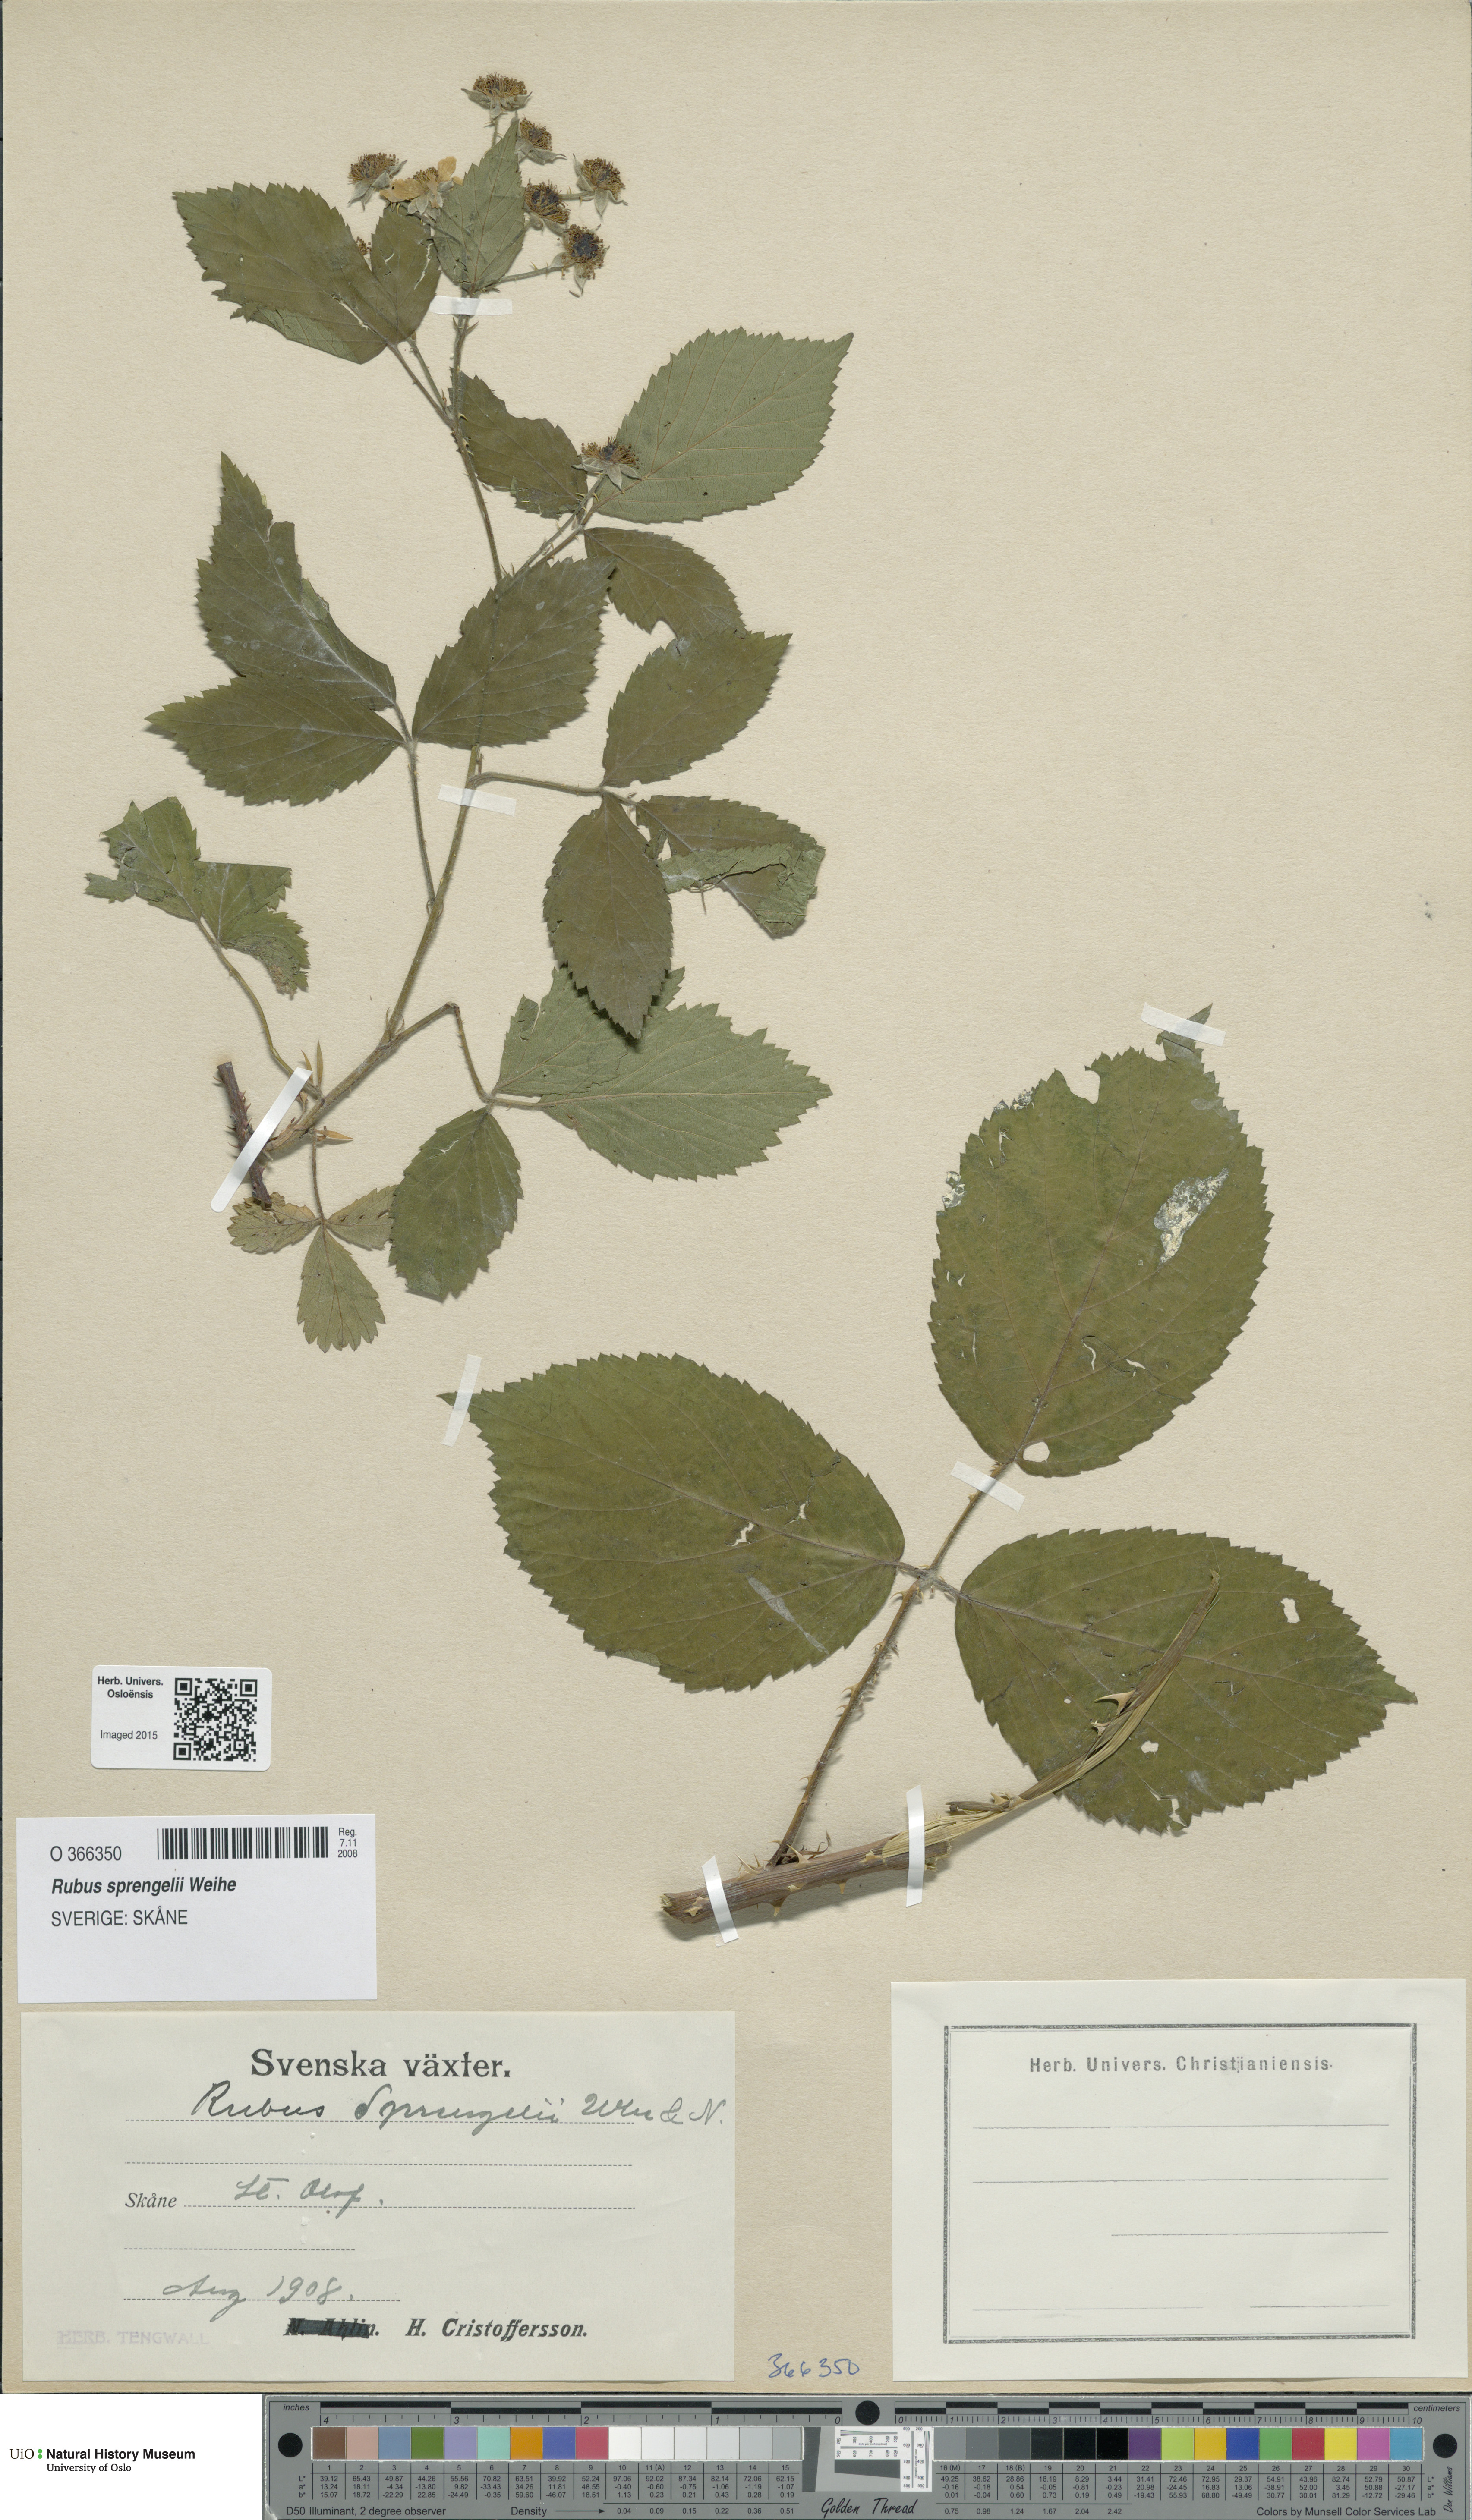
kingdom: Plantae
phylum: Tracheophyta
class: Magnoliopsida
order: Rosales
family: Rosaceae
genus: Rubus
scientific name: Rubus sprengelii
